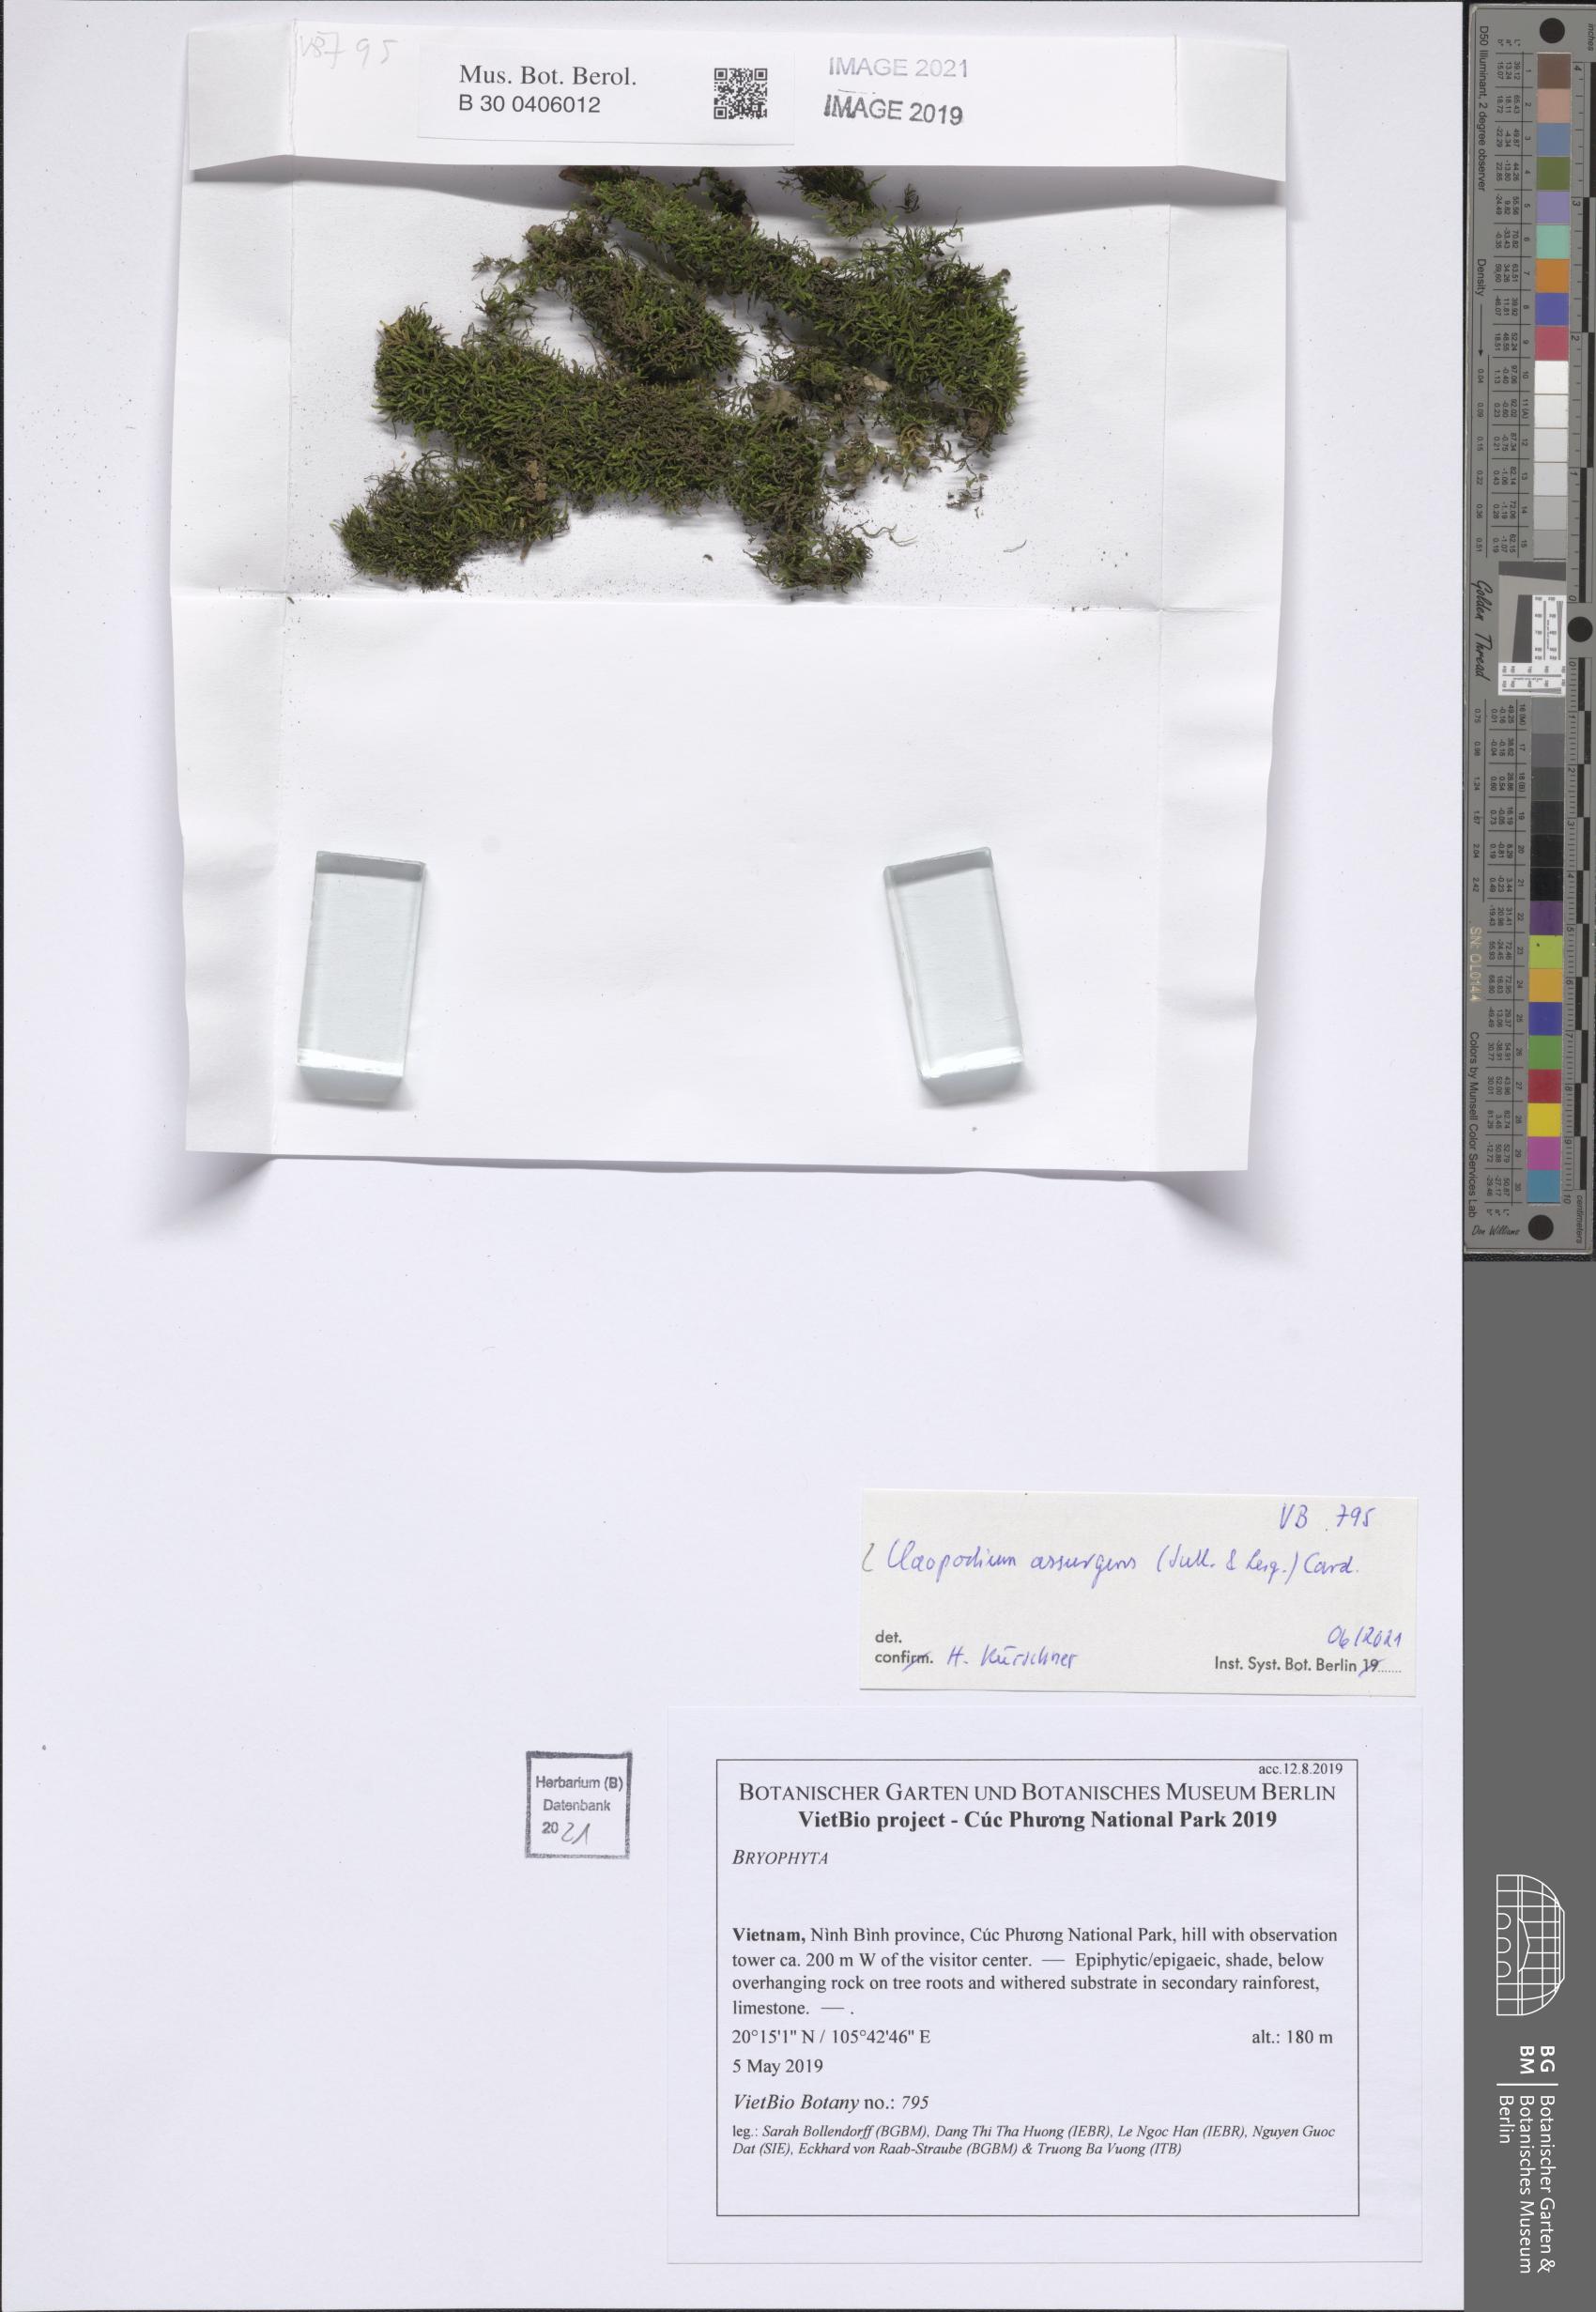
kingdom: Plantae
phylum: Bryophyta
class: Bryopsida
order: Hypnales
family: Brachytheciaceae
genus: Claopodium
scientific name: Claopodium assurgens
